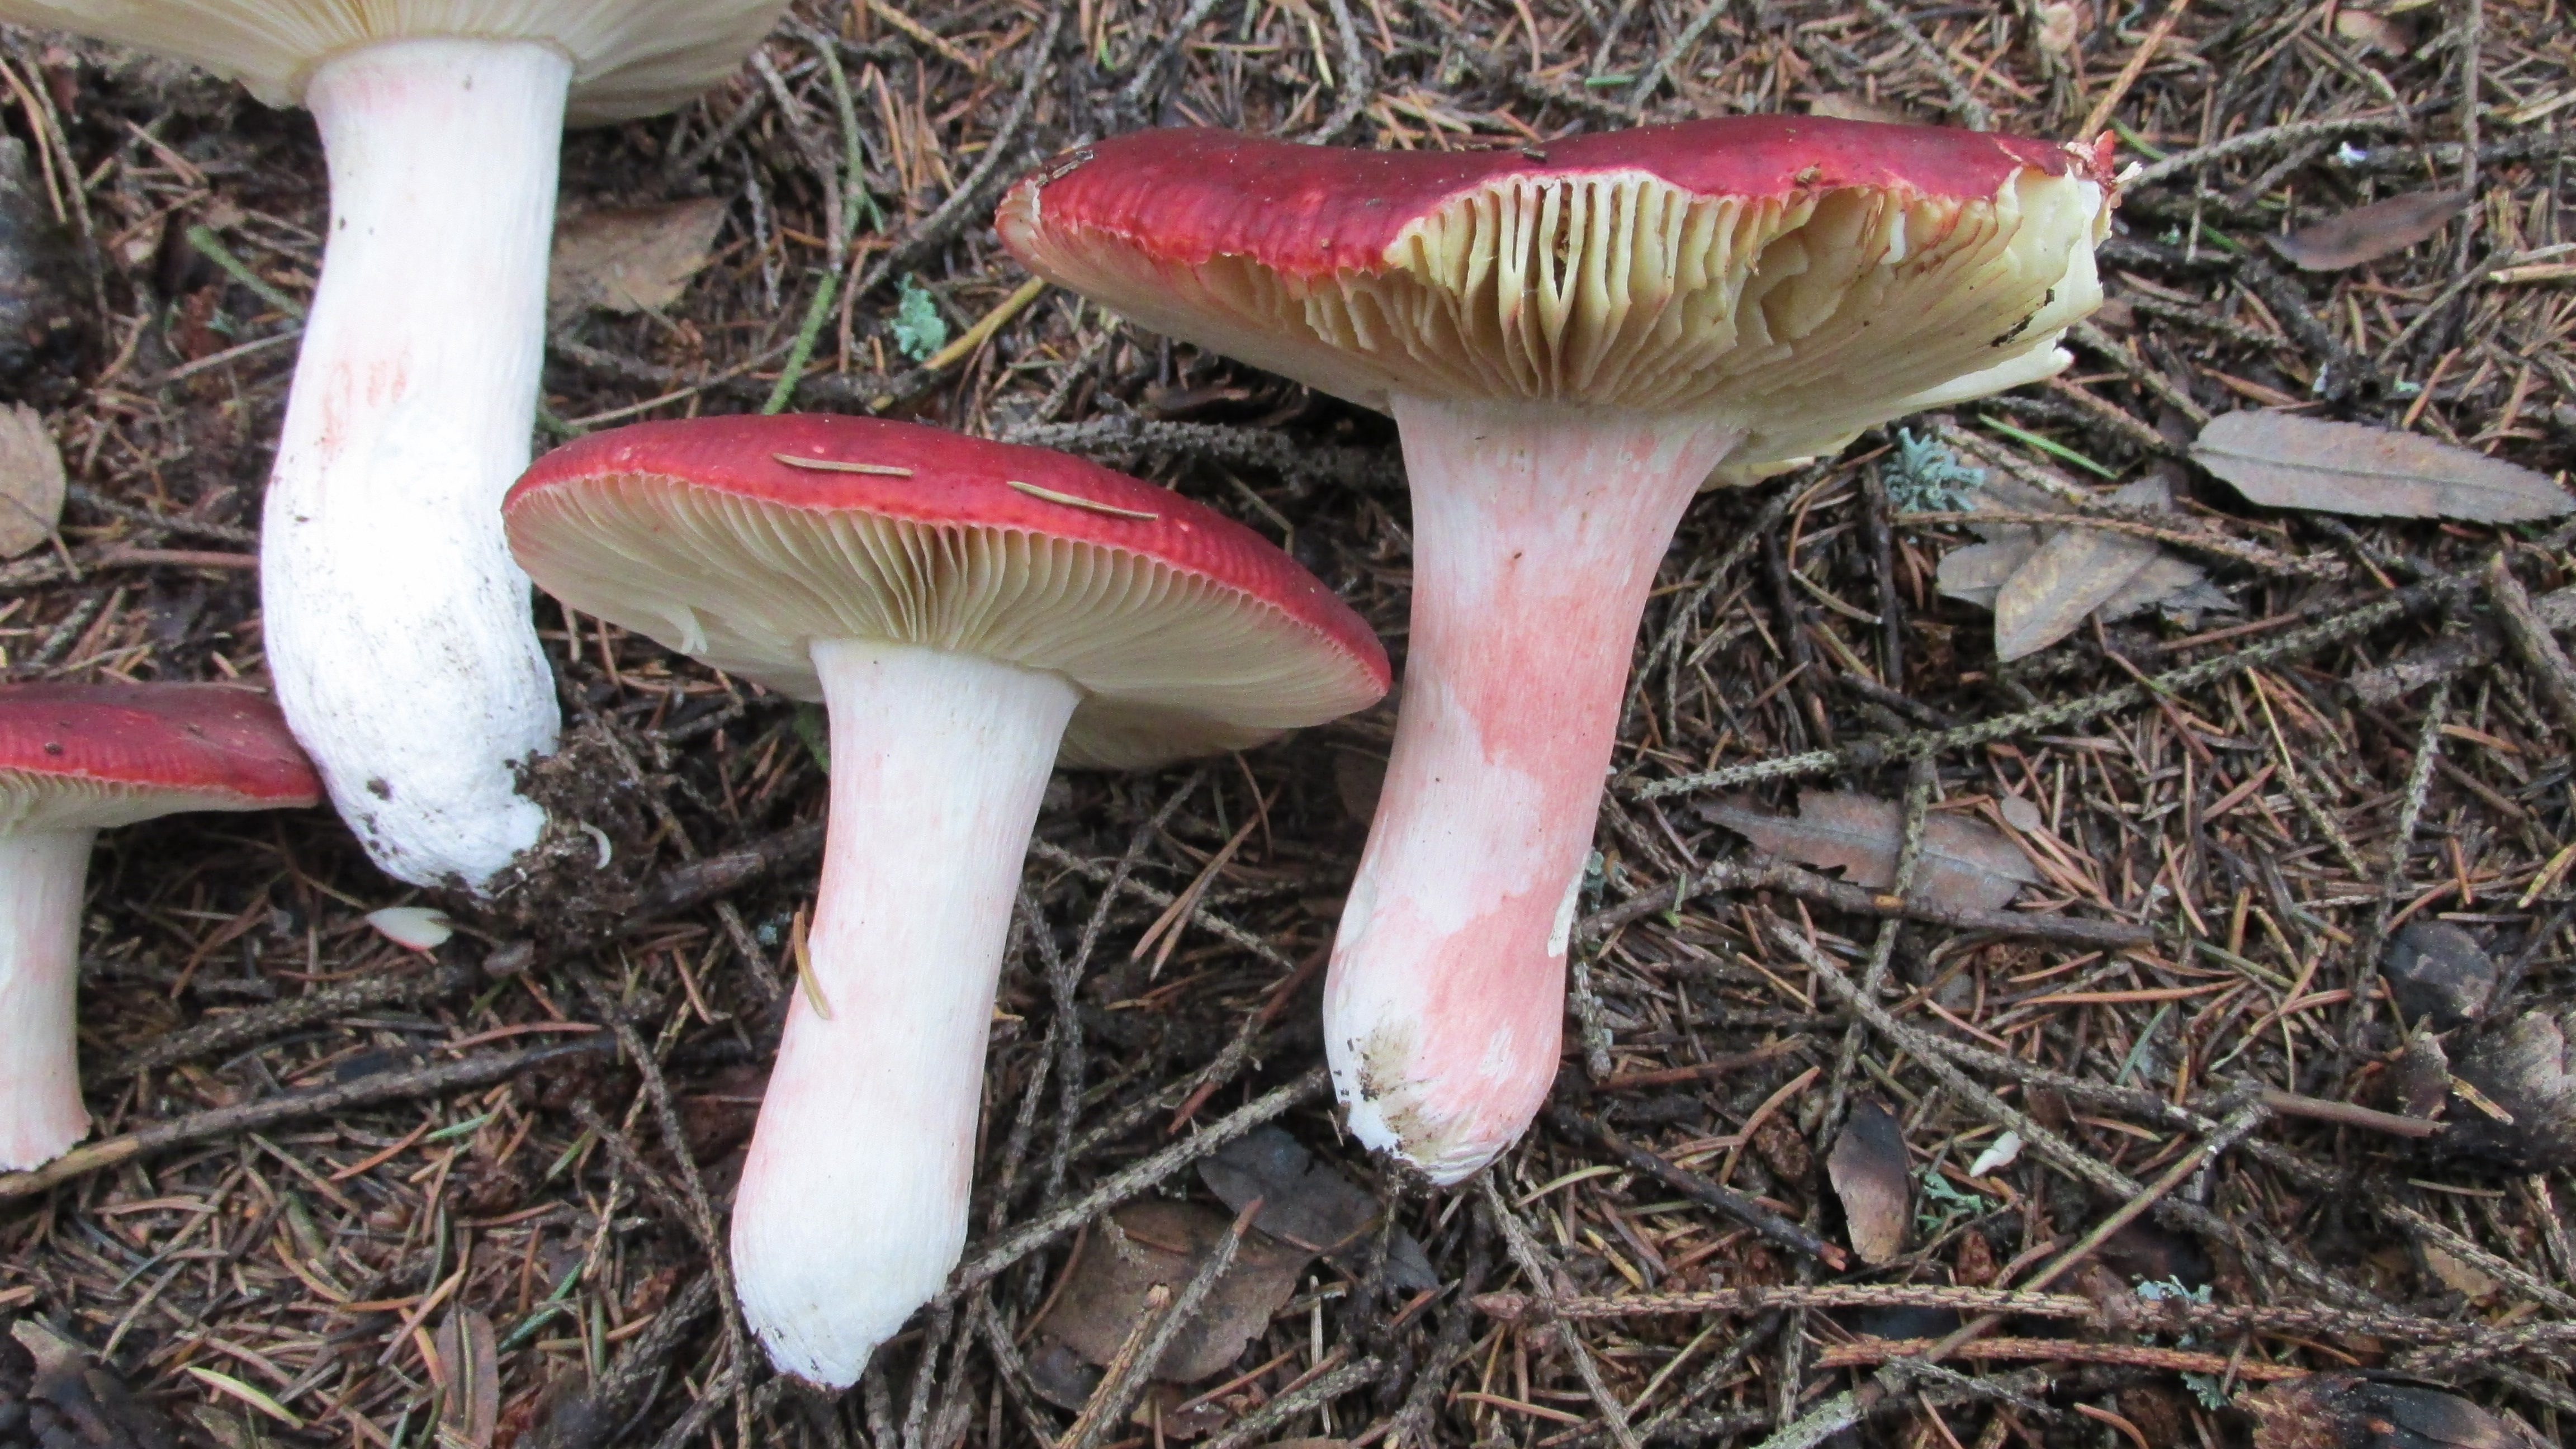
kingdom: Fungi
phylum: Basidiomycota
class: Agaricomycetes
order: Russulales
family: Russulaceae
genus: Russula
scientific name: Russula rhodopus
